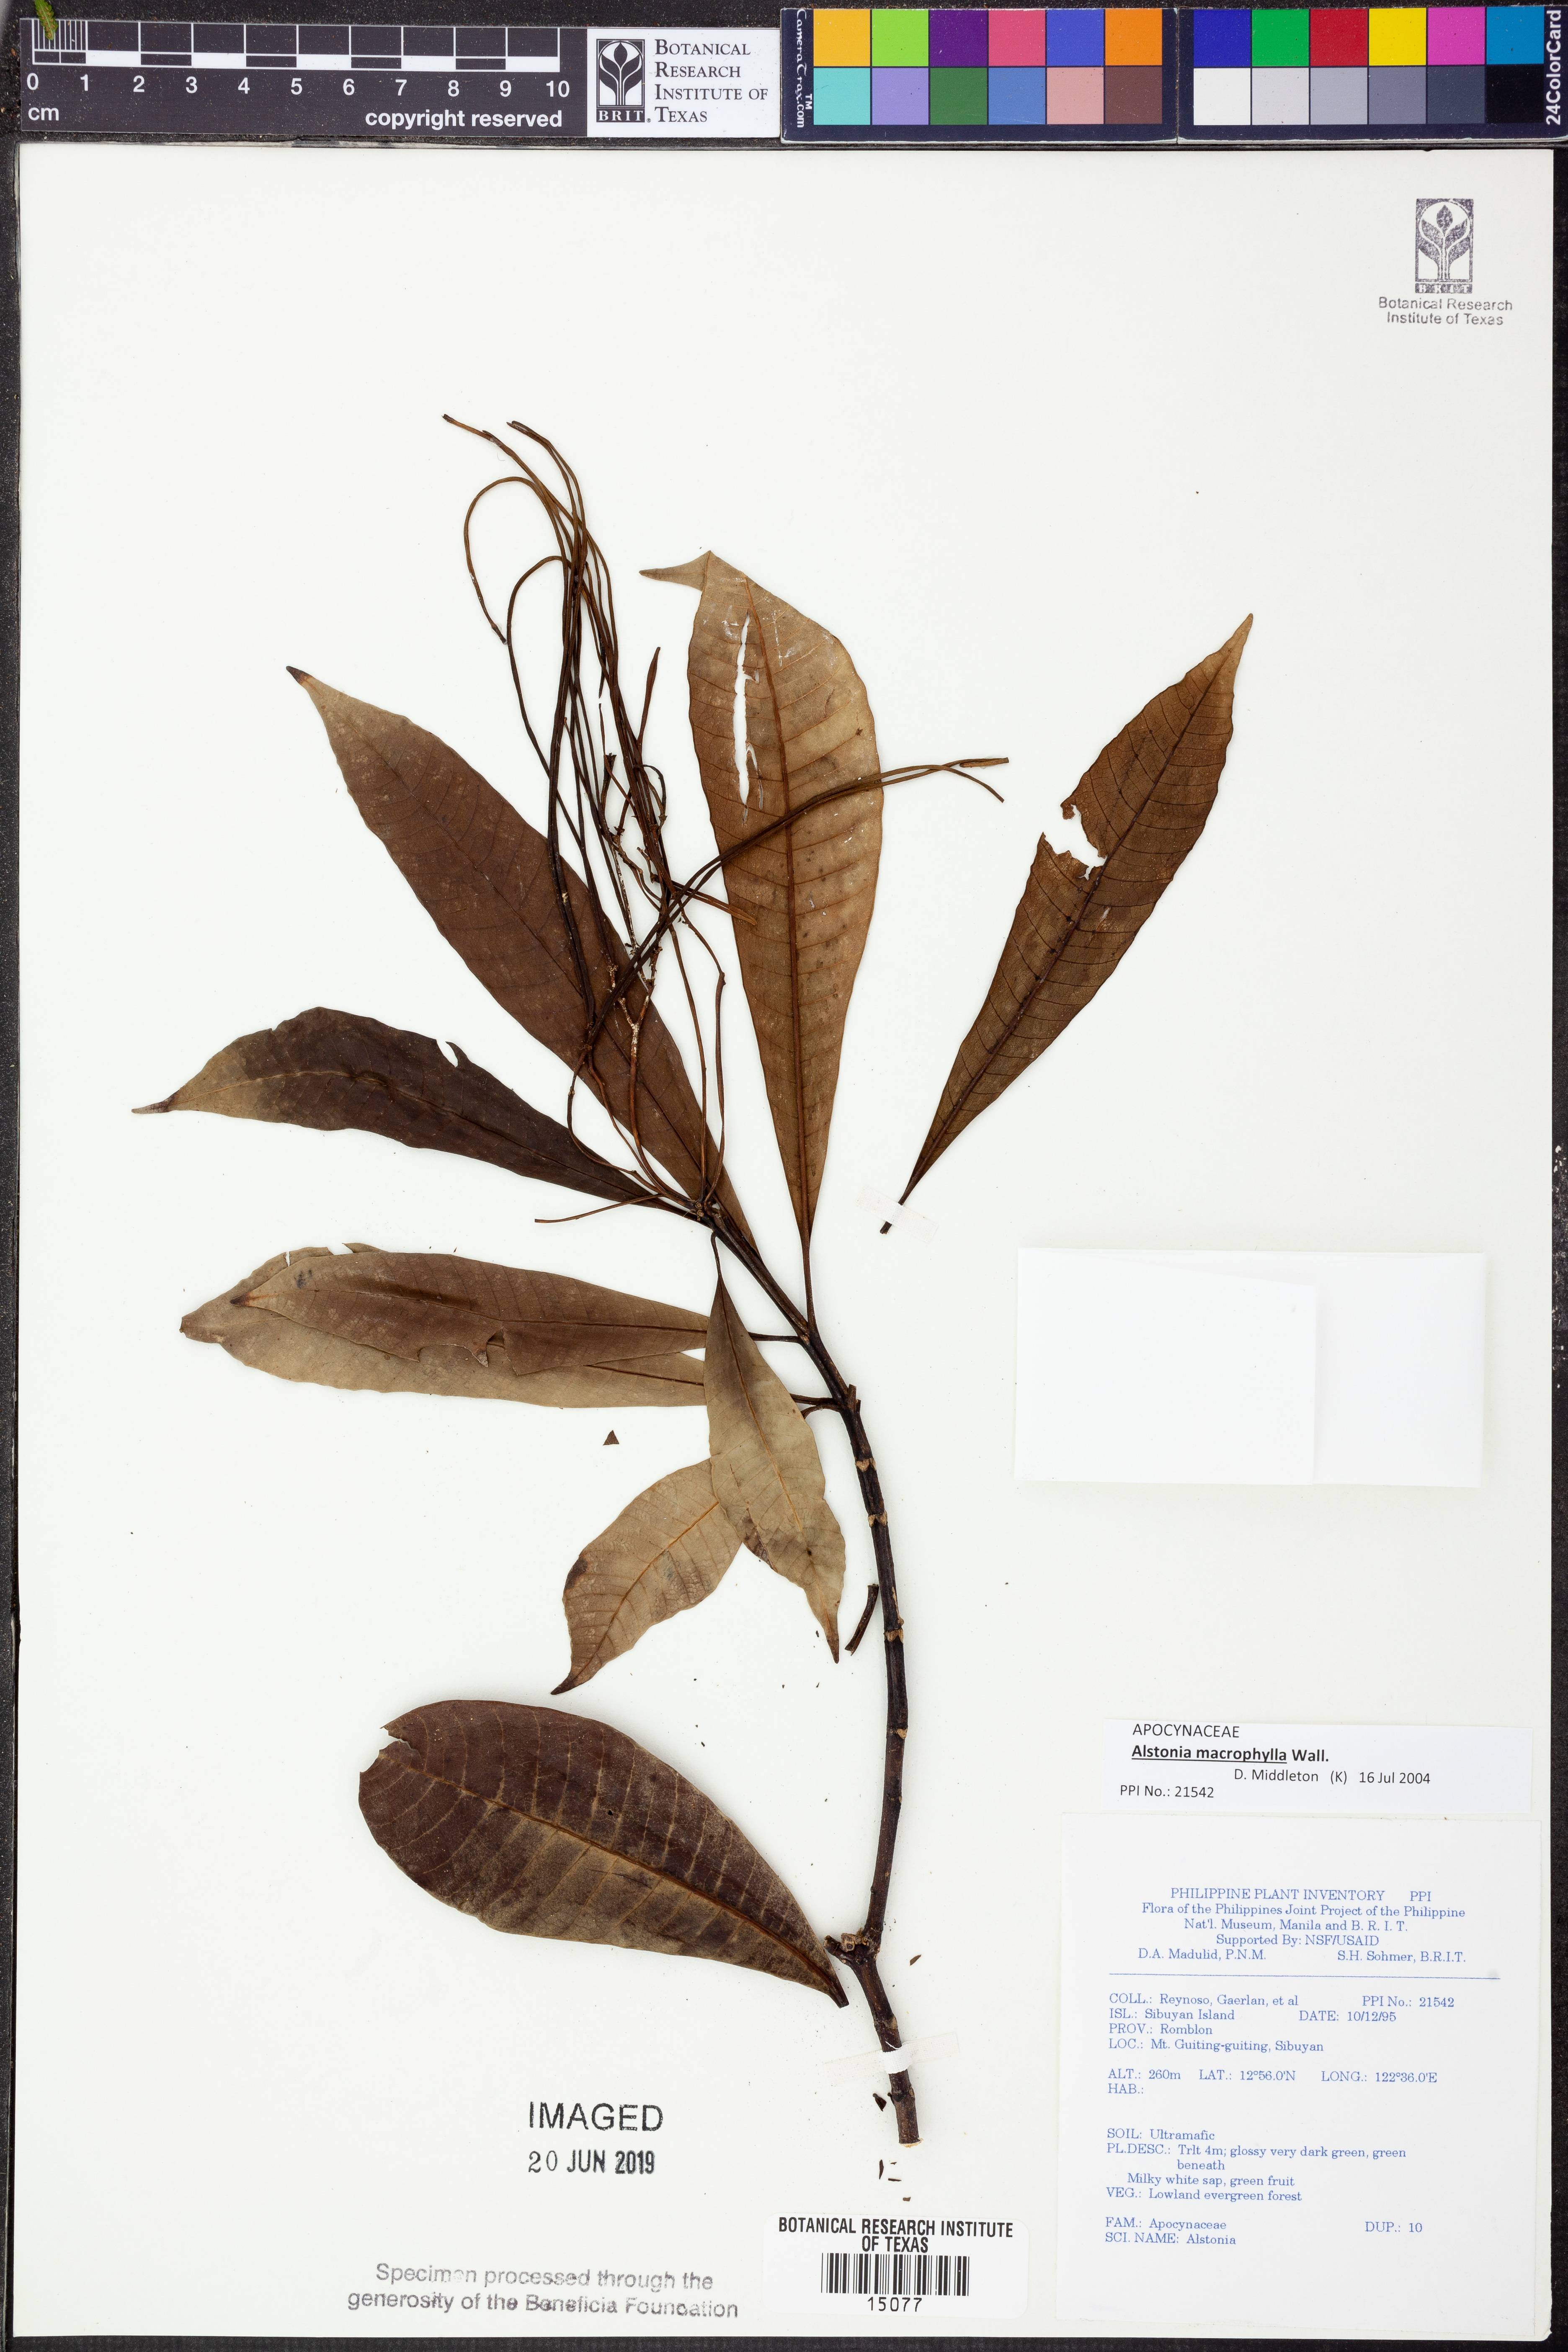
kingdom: Plantae
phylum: Tracheophyta
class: Magnoliopsida
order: Gentianales
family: Apocynaceae
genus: Alstonia
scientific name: Alstonia macrophylla
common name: Deviltree
